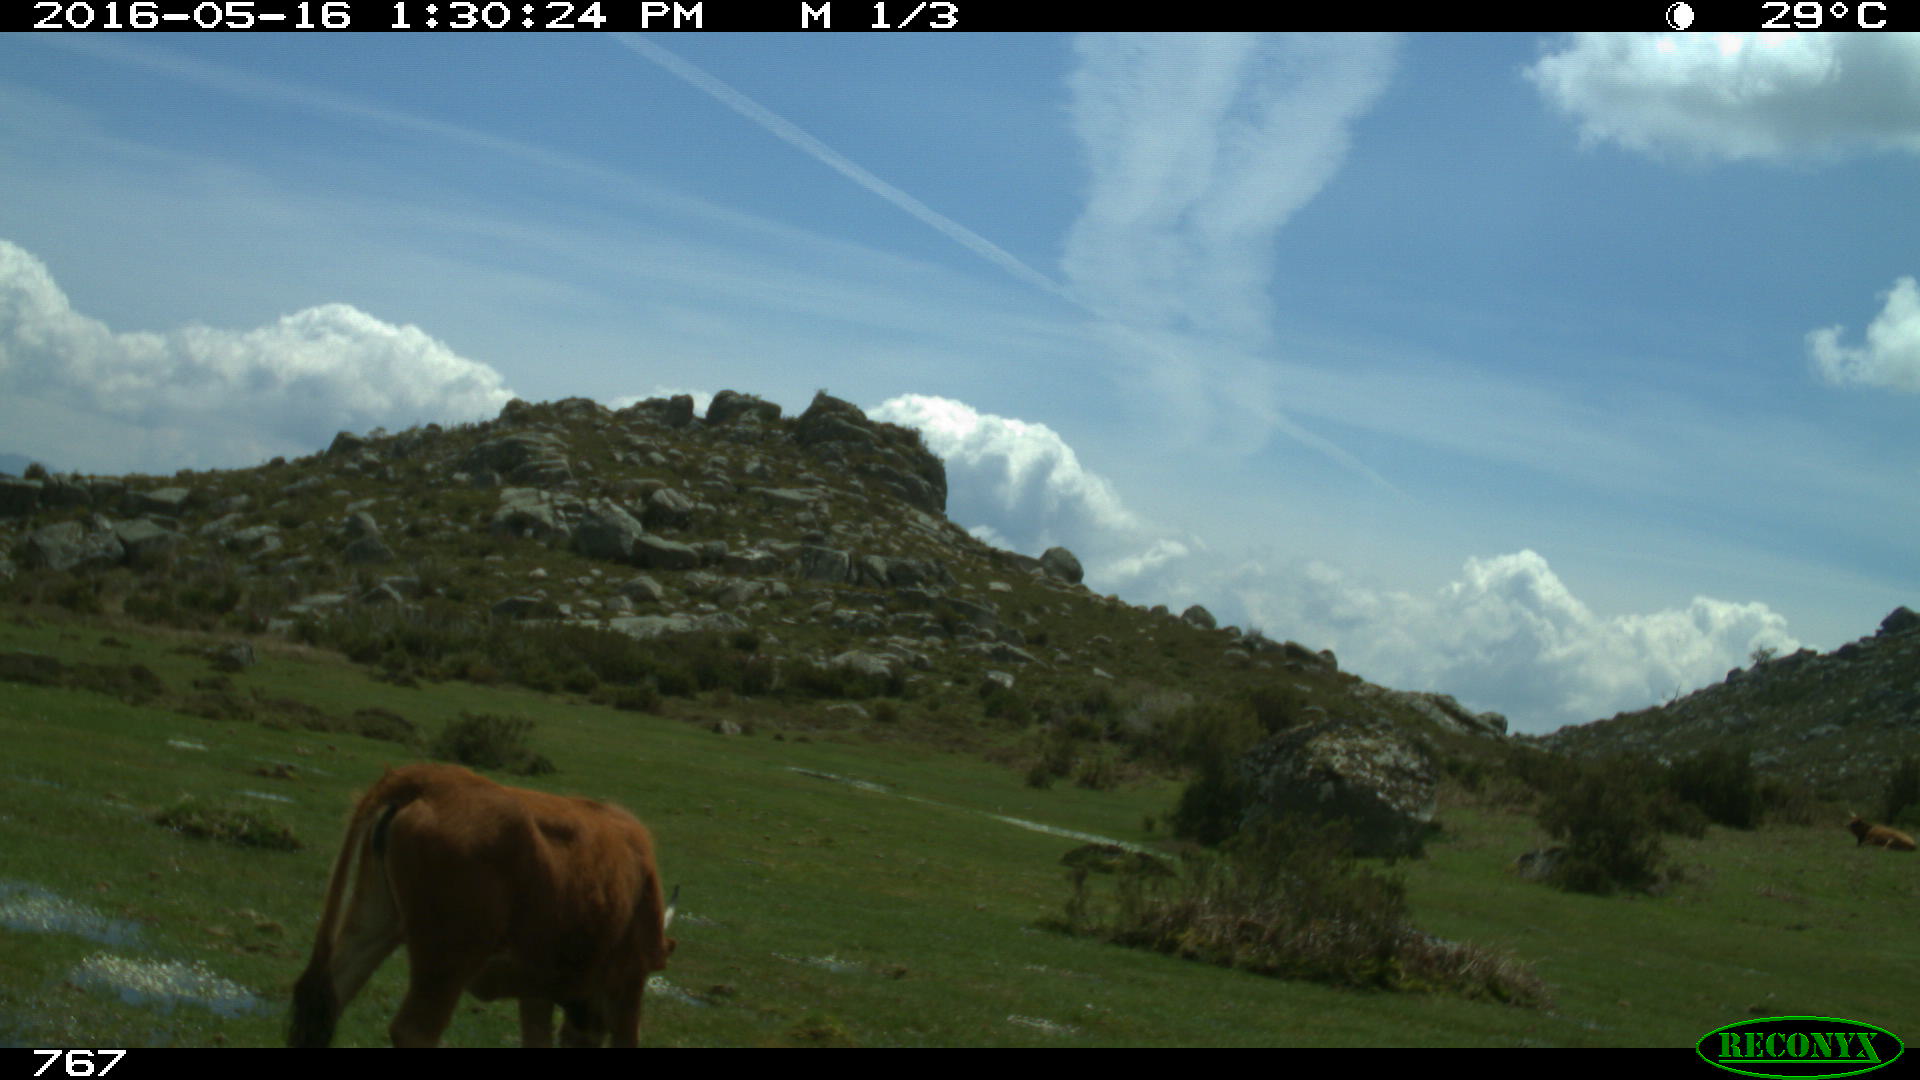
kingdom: Animalia
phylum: Chordata
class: Mammalia
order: Artiodactyla
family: Bovidae
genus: Bos
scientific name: Bos taurus
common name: Domesticated cattle
